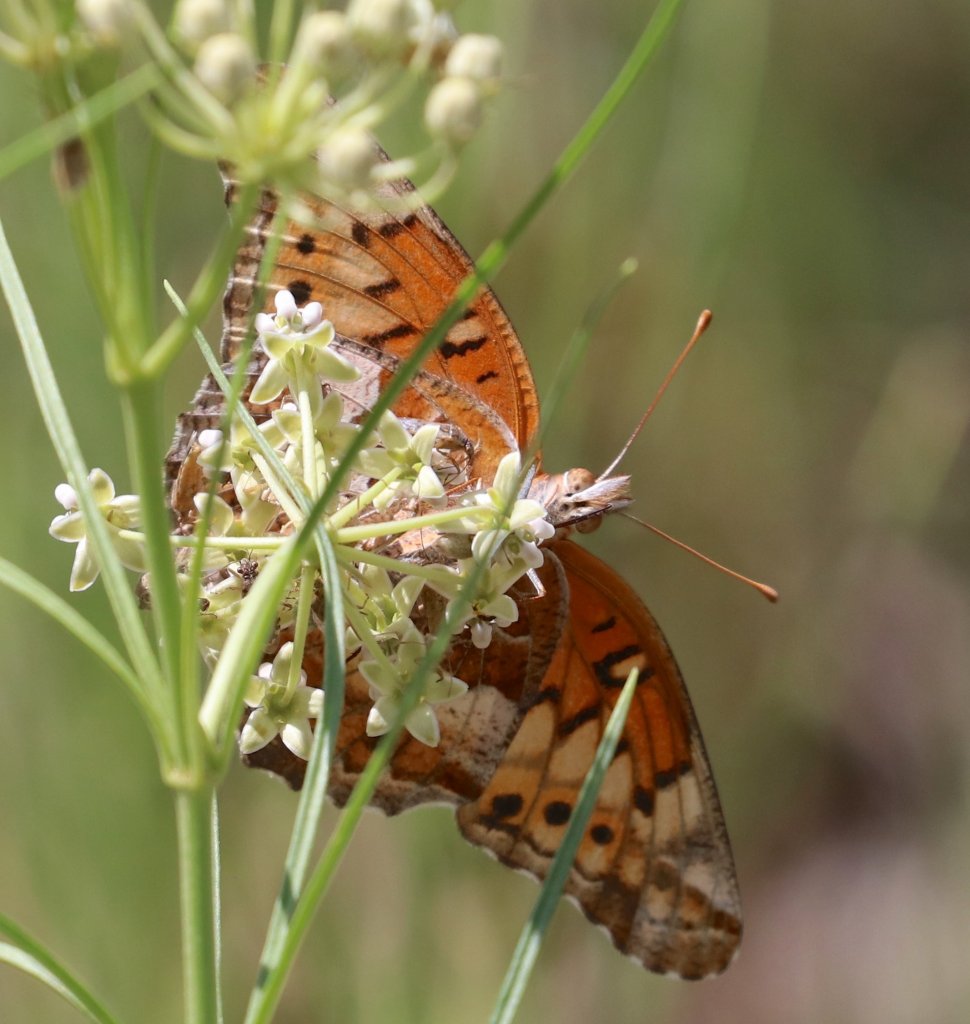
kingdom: Animalia
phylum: Arthropoda
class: Insecta
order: Lepidoptera
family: Nymphalidae
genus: Euptoieta
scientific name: Euptoieta claudia
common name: Variegated Fritillary
